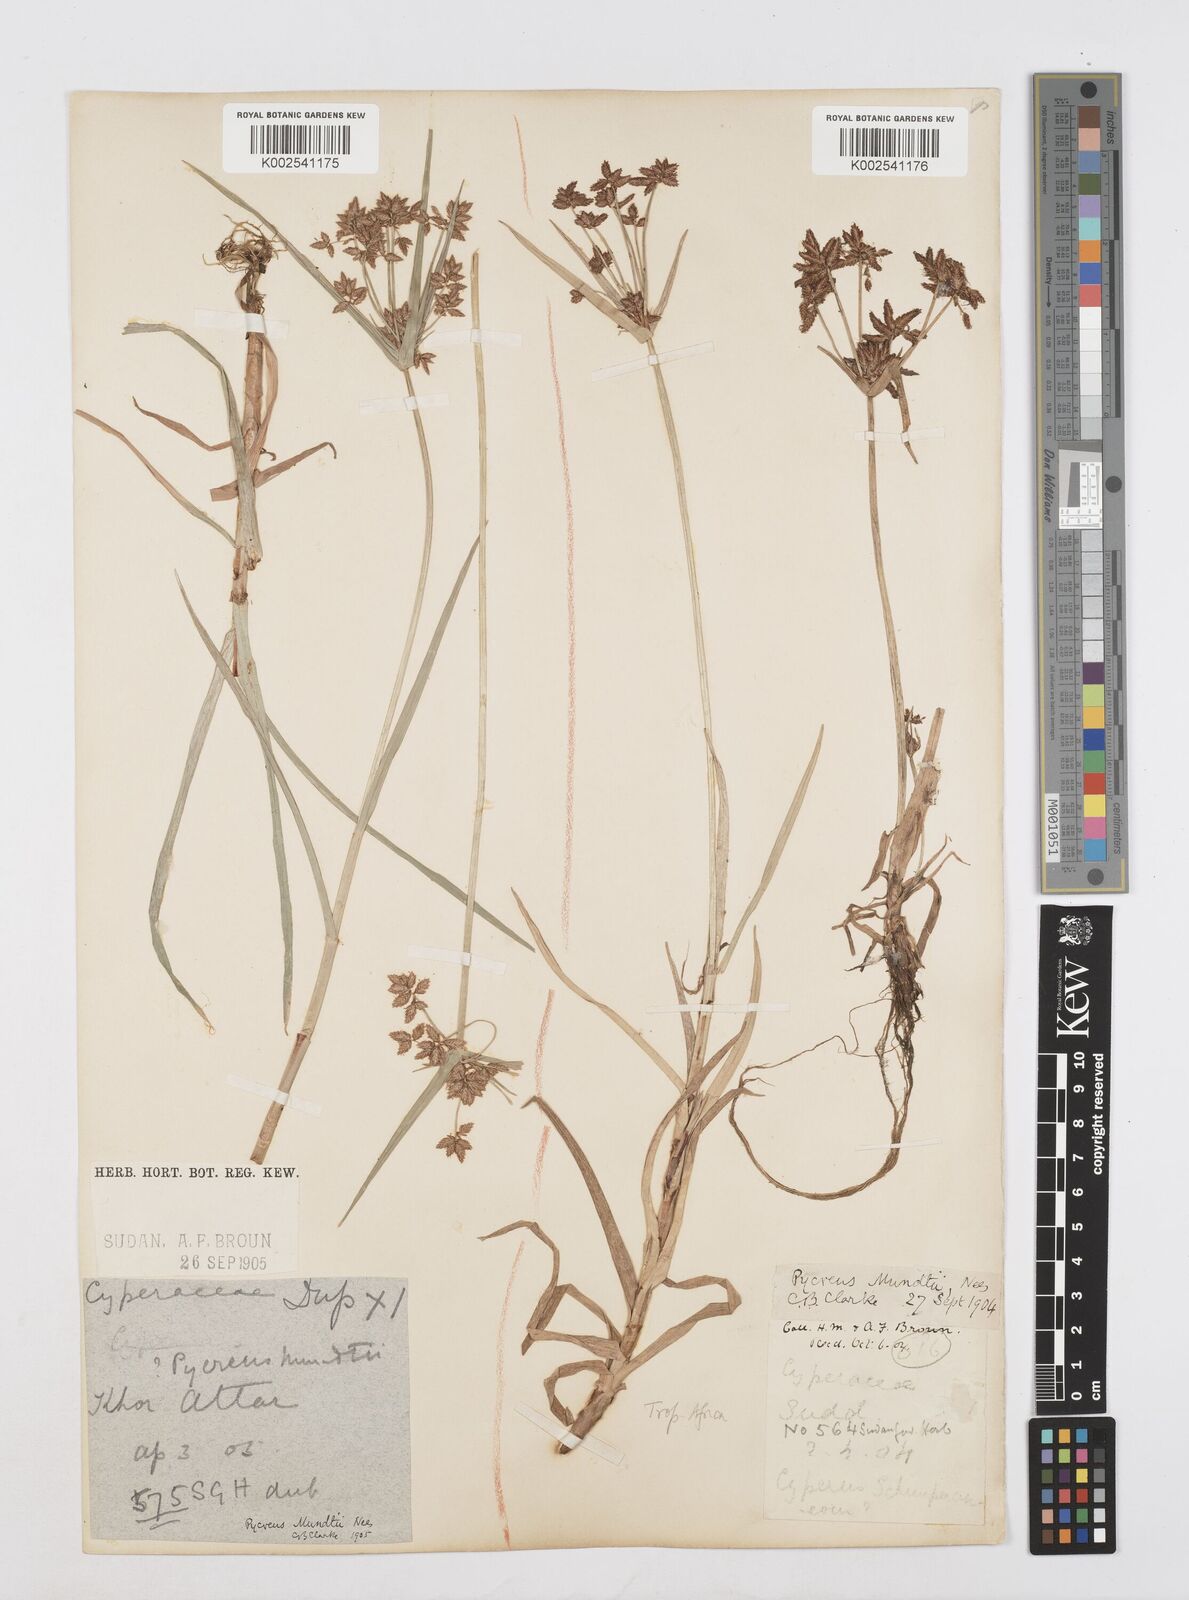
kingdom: Plantae
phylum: Tracheophyta
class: Liliopsida
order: Poales
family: Cyperaceae
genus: Cyperus
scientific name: Cyperus mundii
